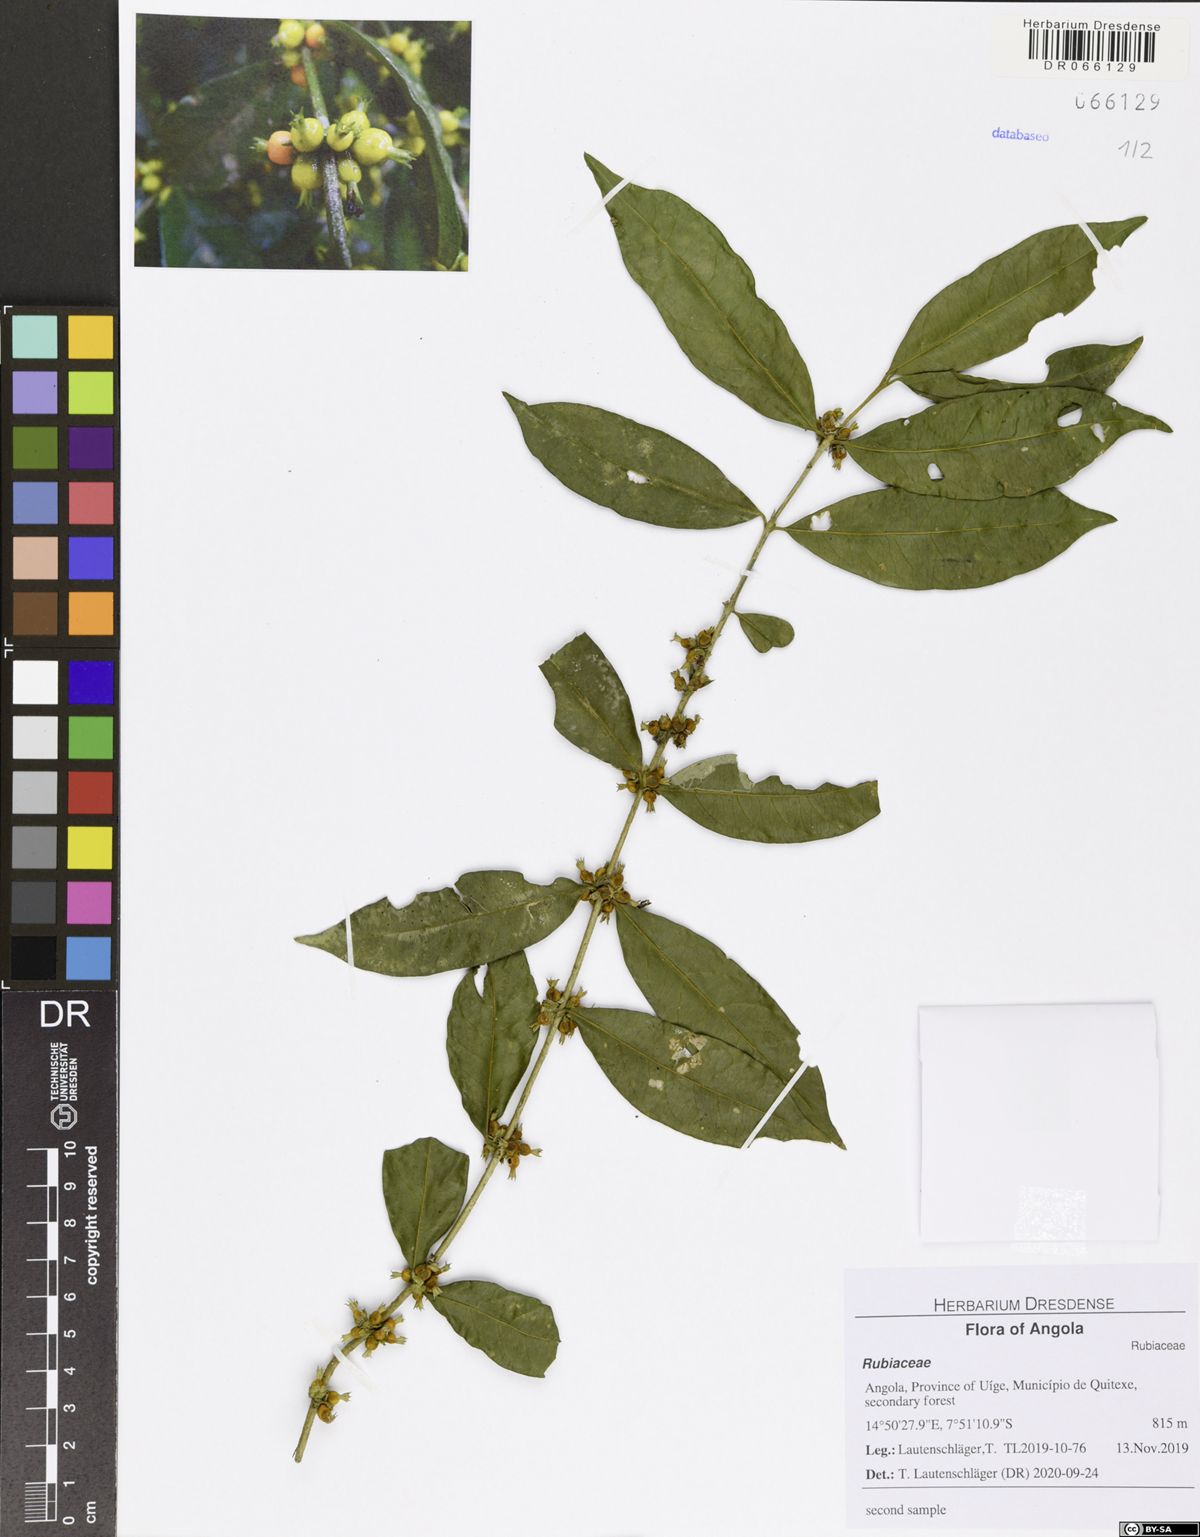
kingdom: Plantae
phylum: Tracheophyta
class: Magnoliopsida
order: Gentianales
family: Rubiaceae
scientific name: Rubiaceae
